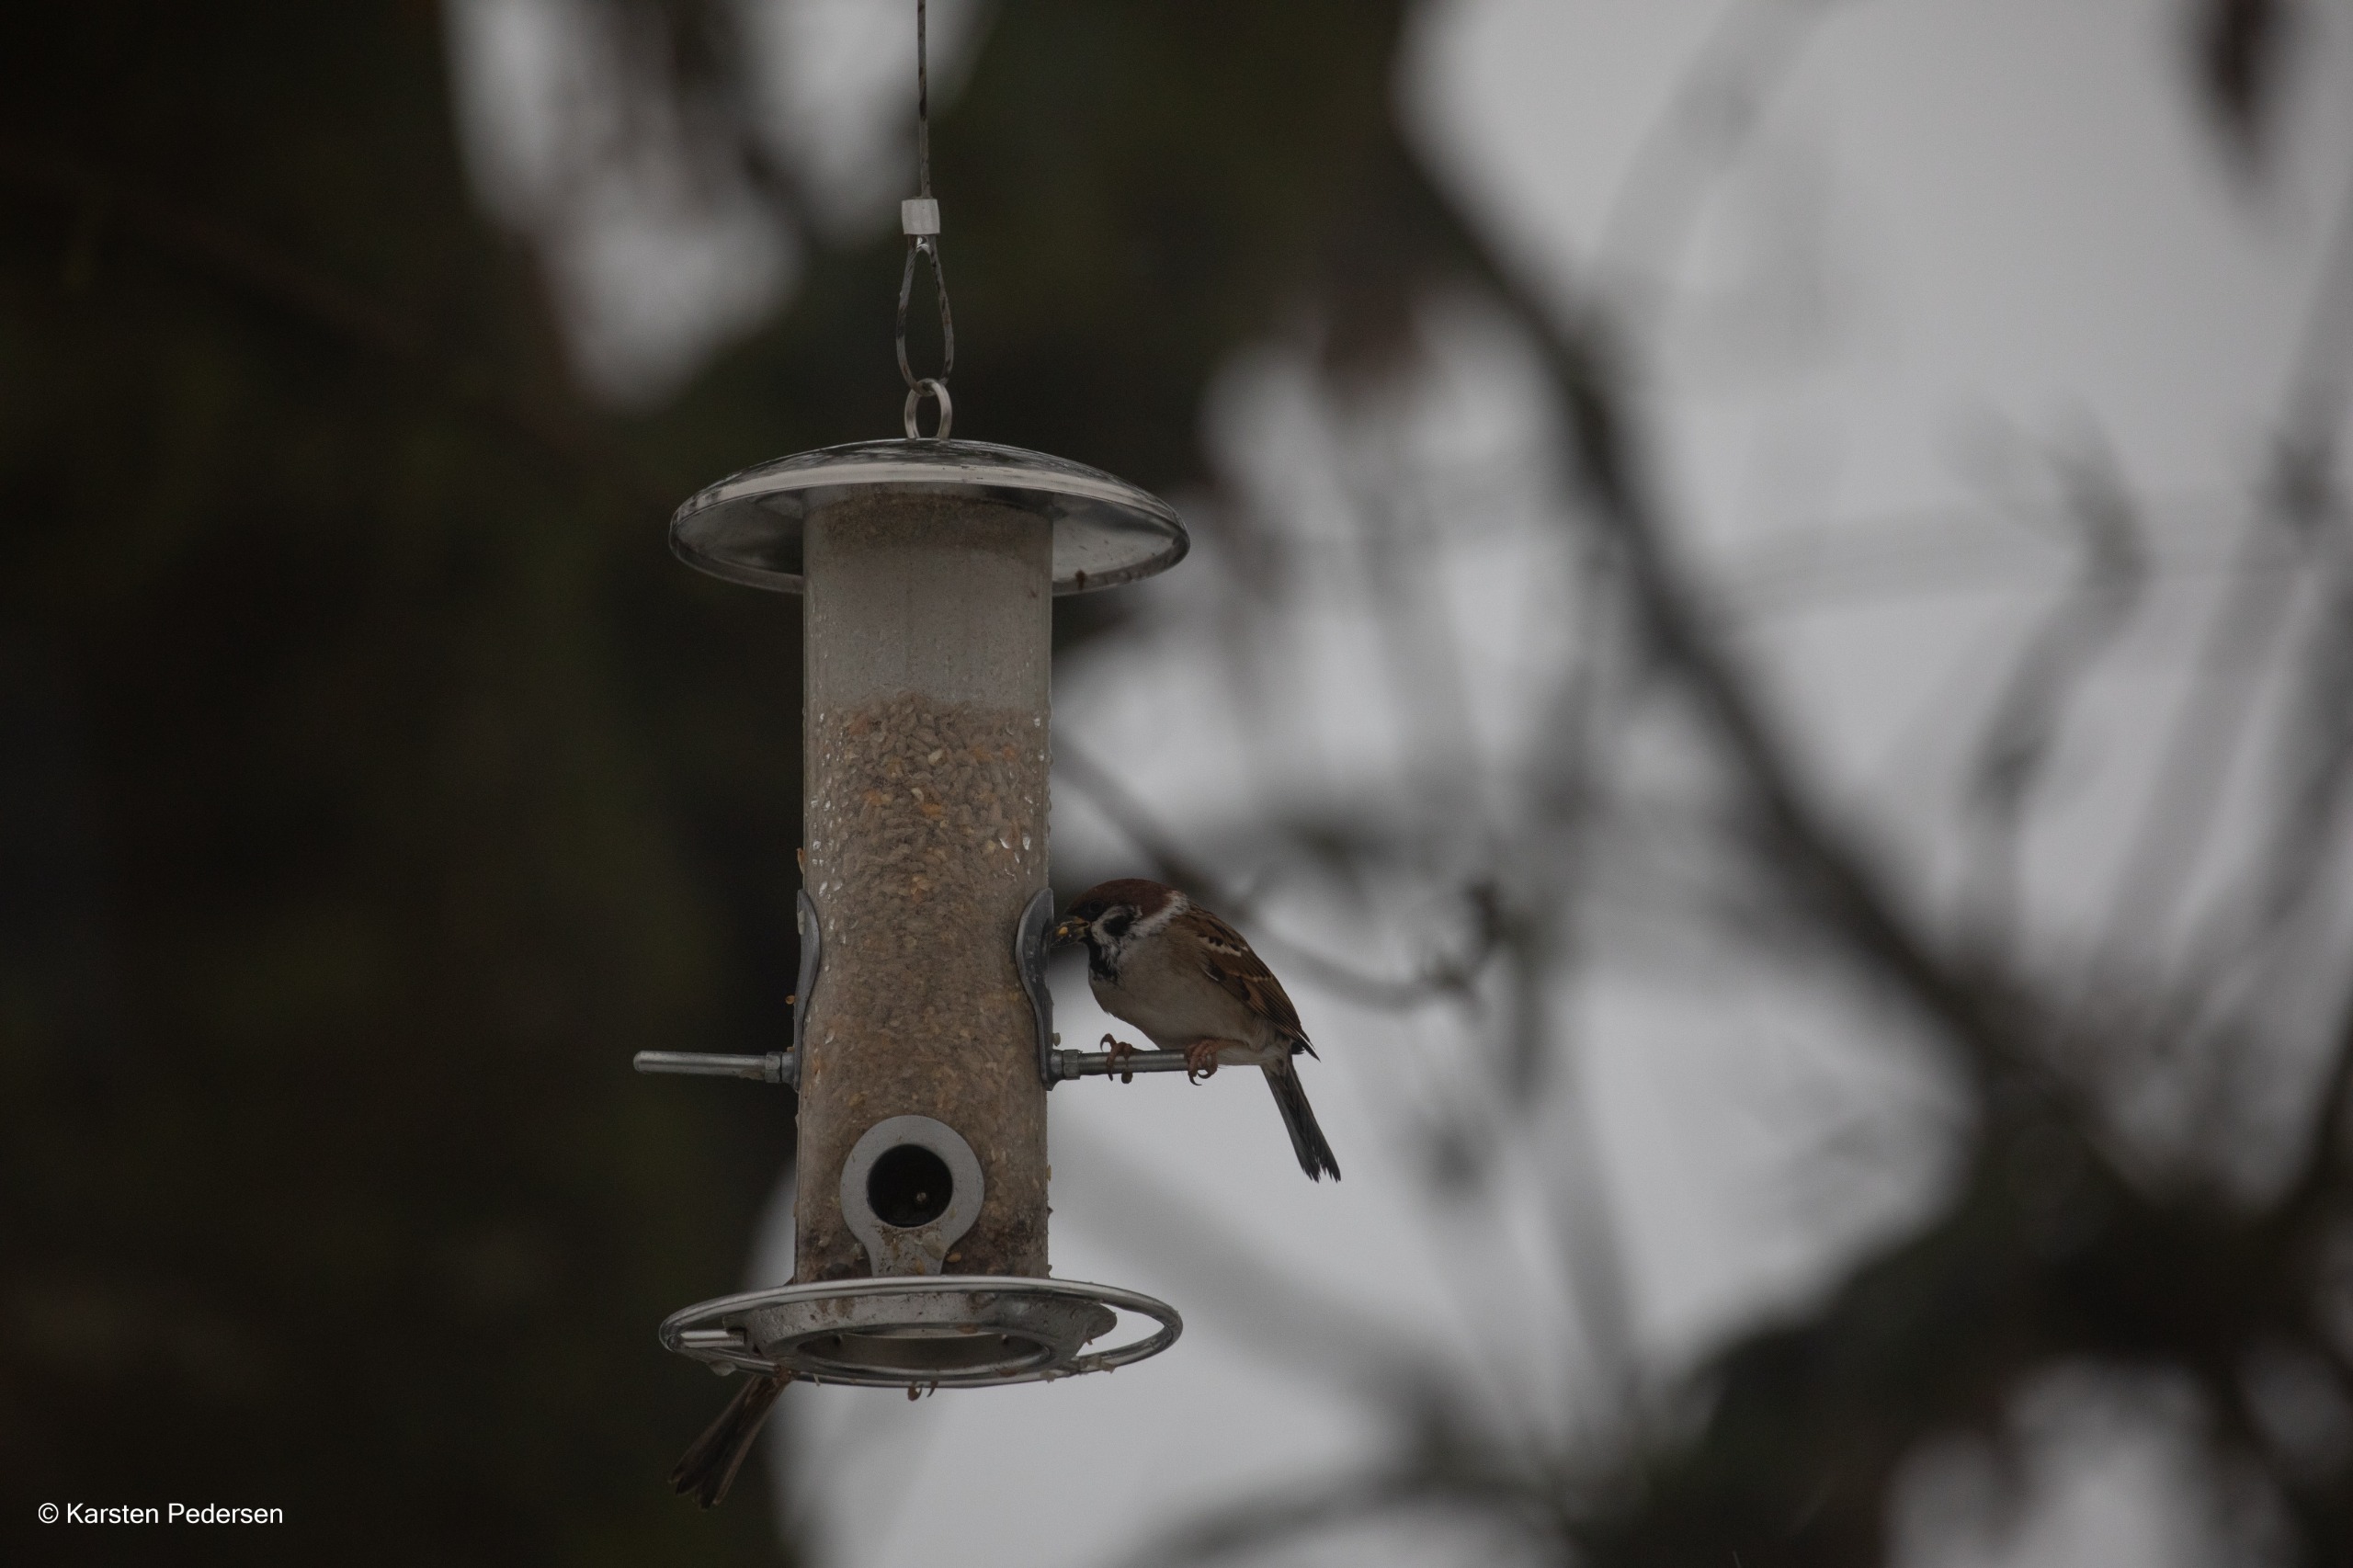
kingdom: Animalia
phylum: Chordata
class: Aves
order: Passeriformes
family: Passeridae
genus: Passer
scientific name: Passer montanus
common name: Skovspurv
